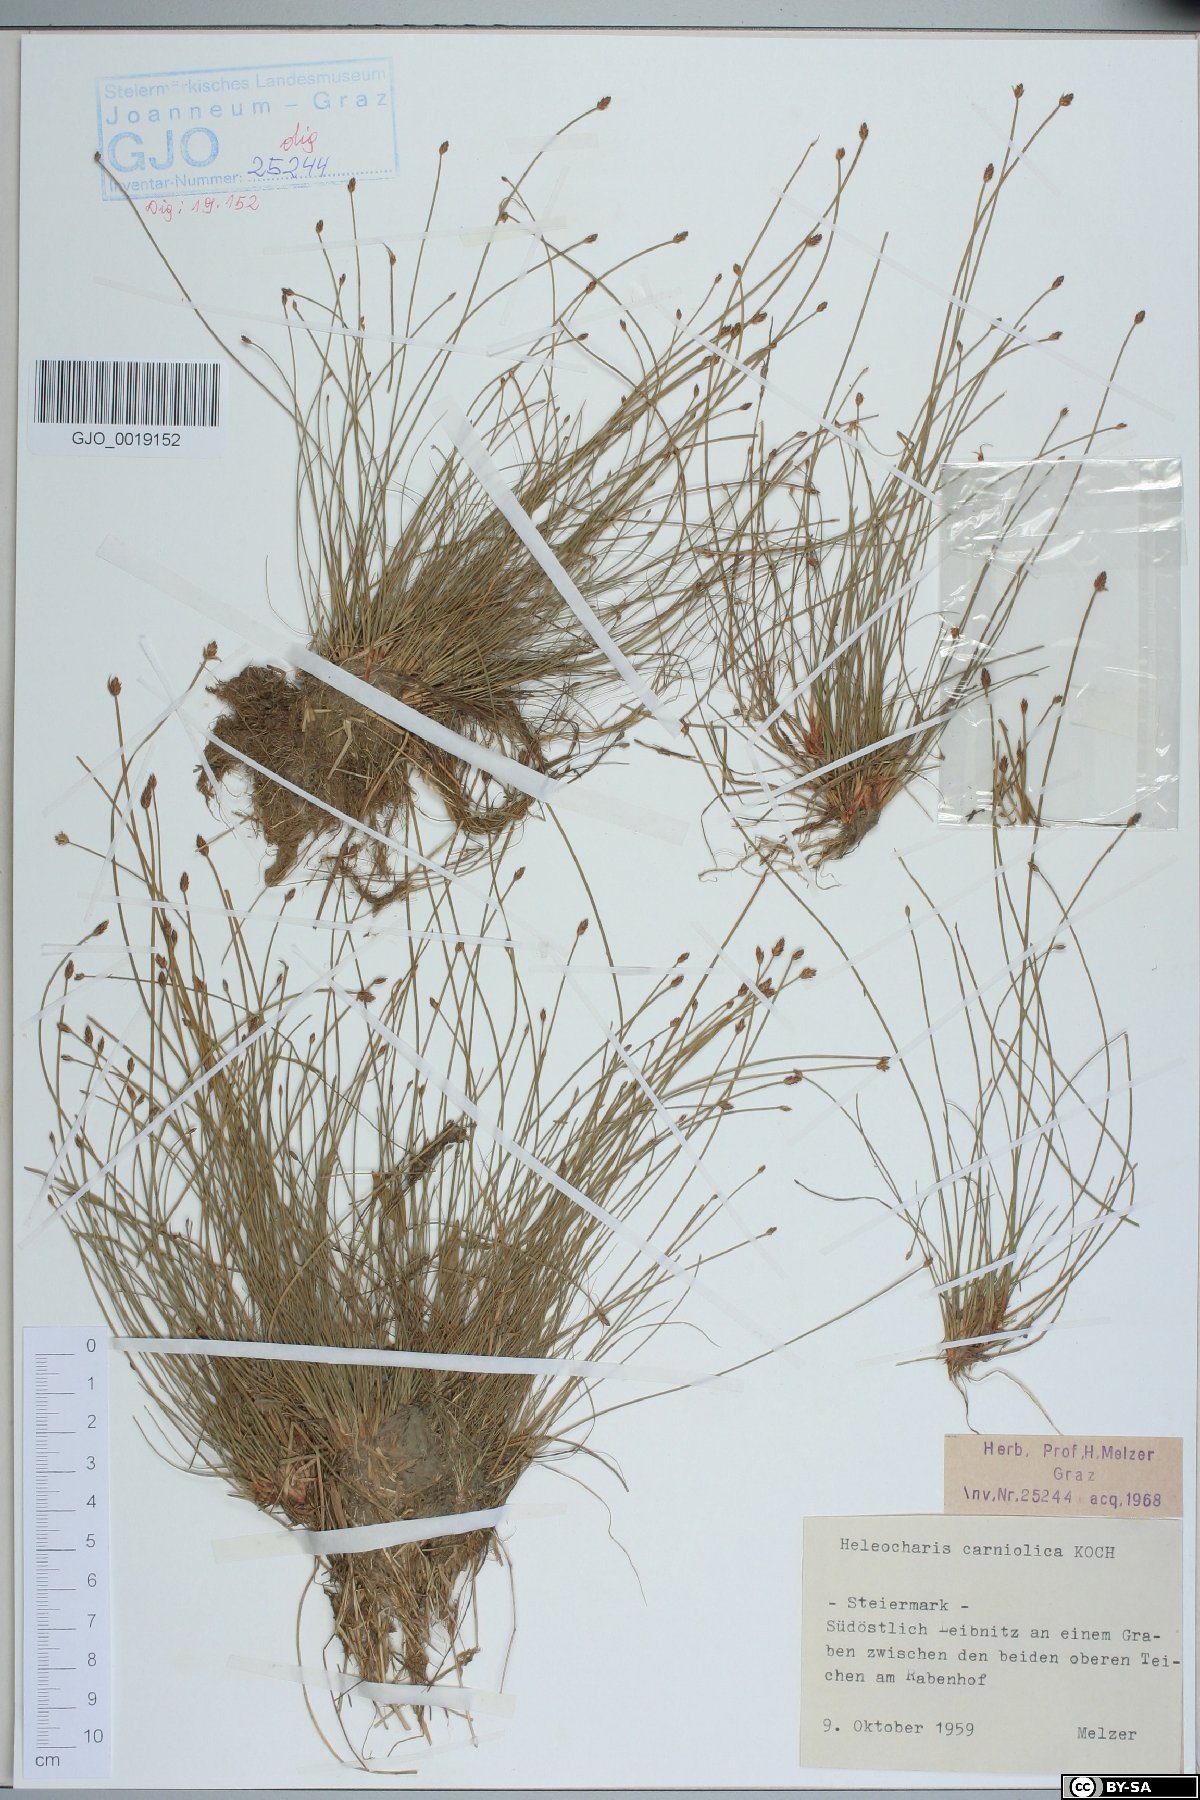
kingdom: Plantae
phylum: Tracheophyta
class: Liliopsida
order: Poales
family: Cyperaceae
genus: Eleocharis
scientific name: Eleocharis carniolica
